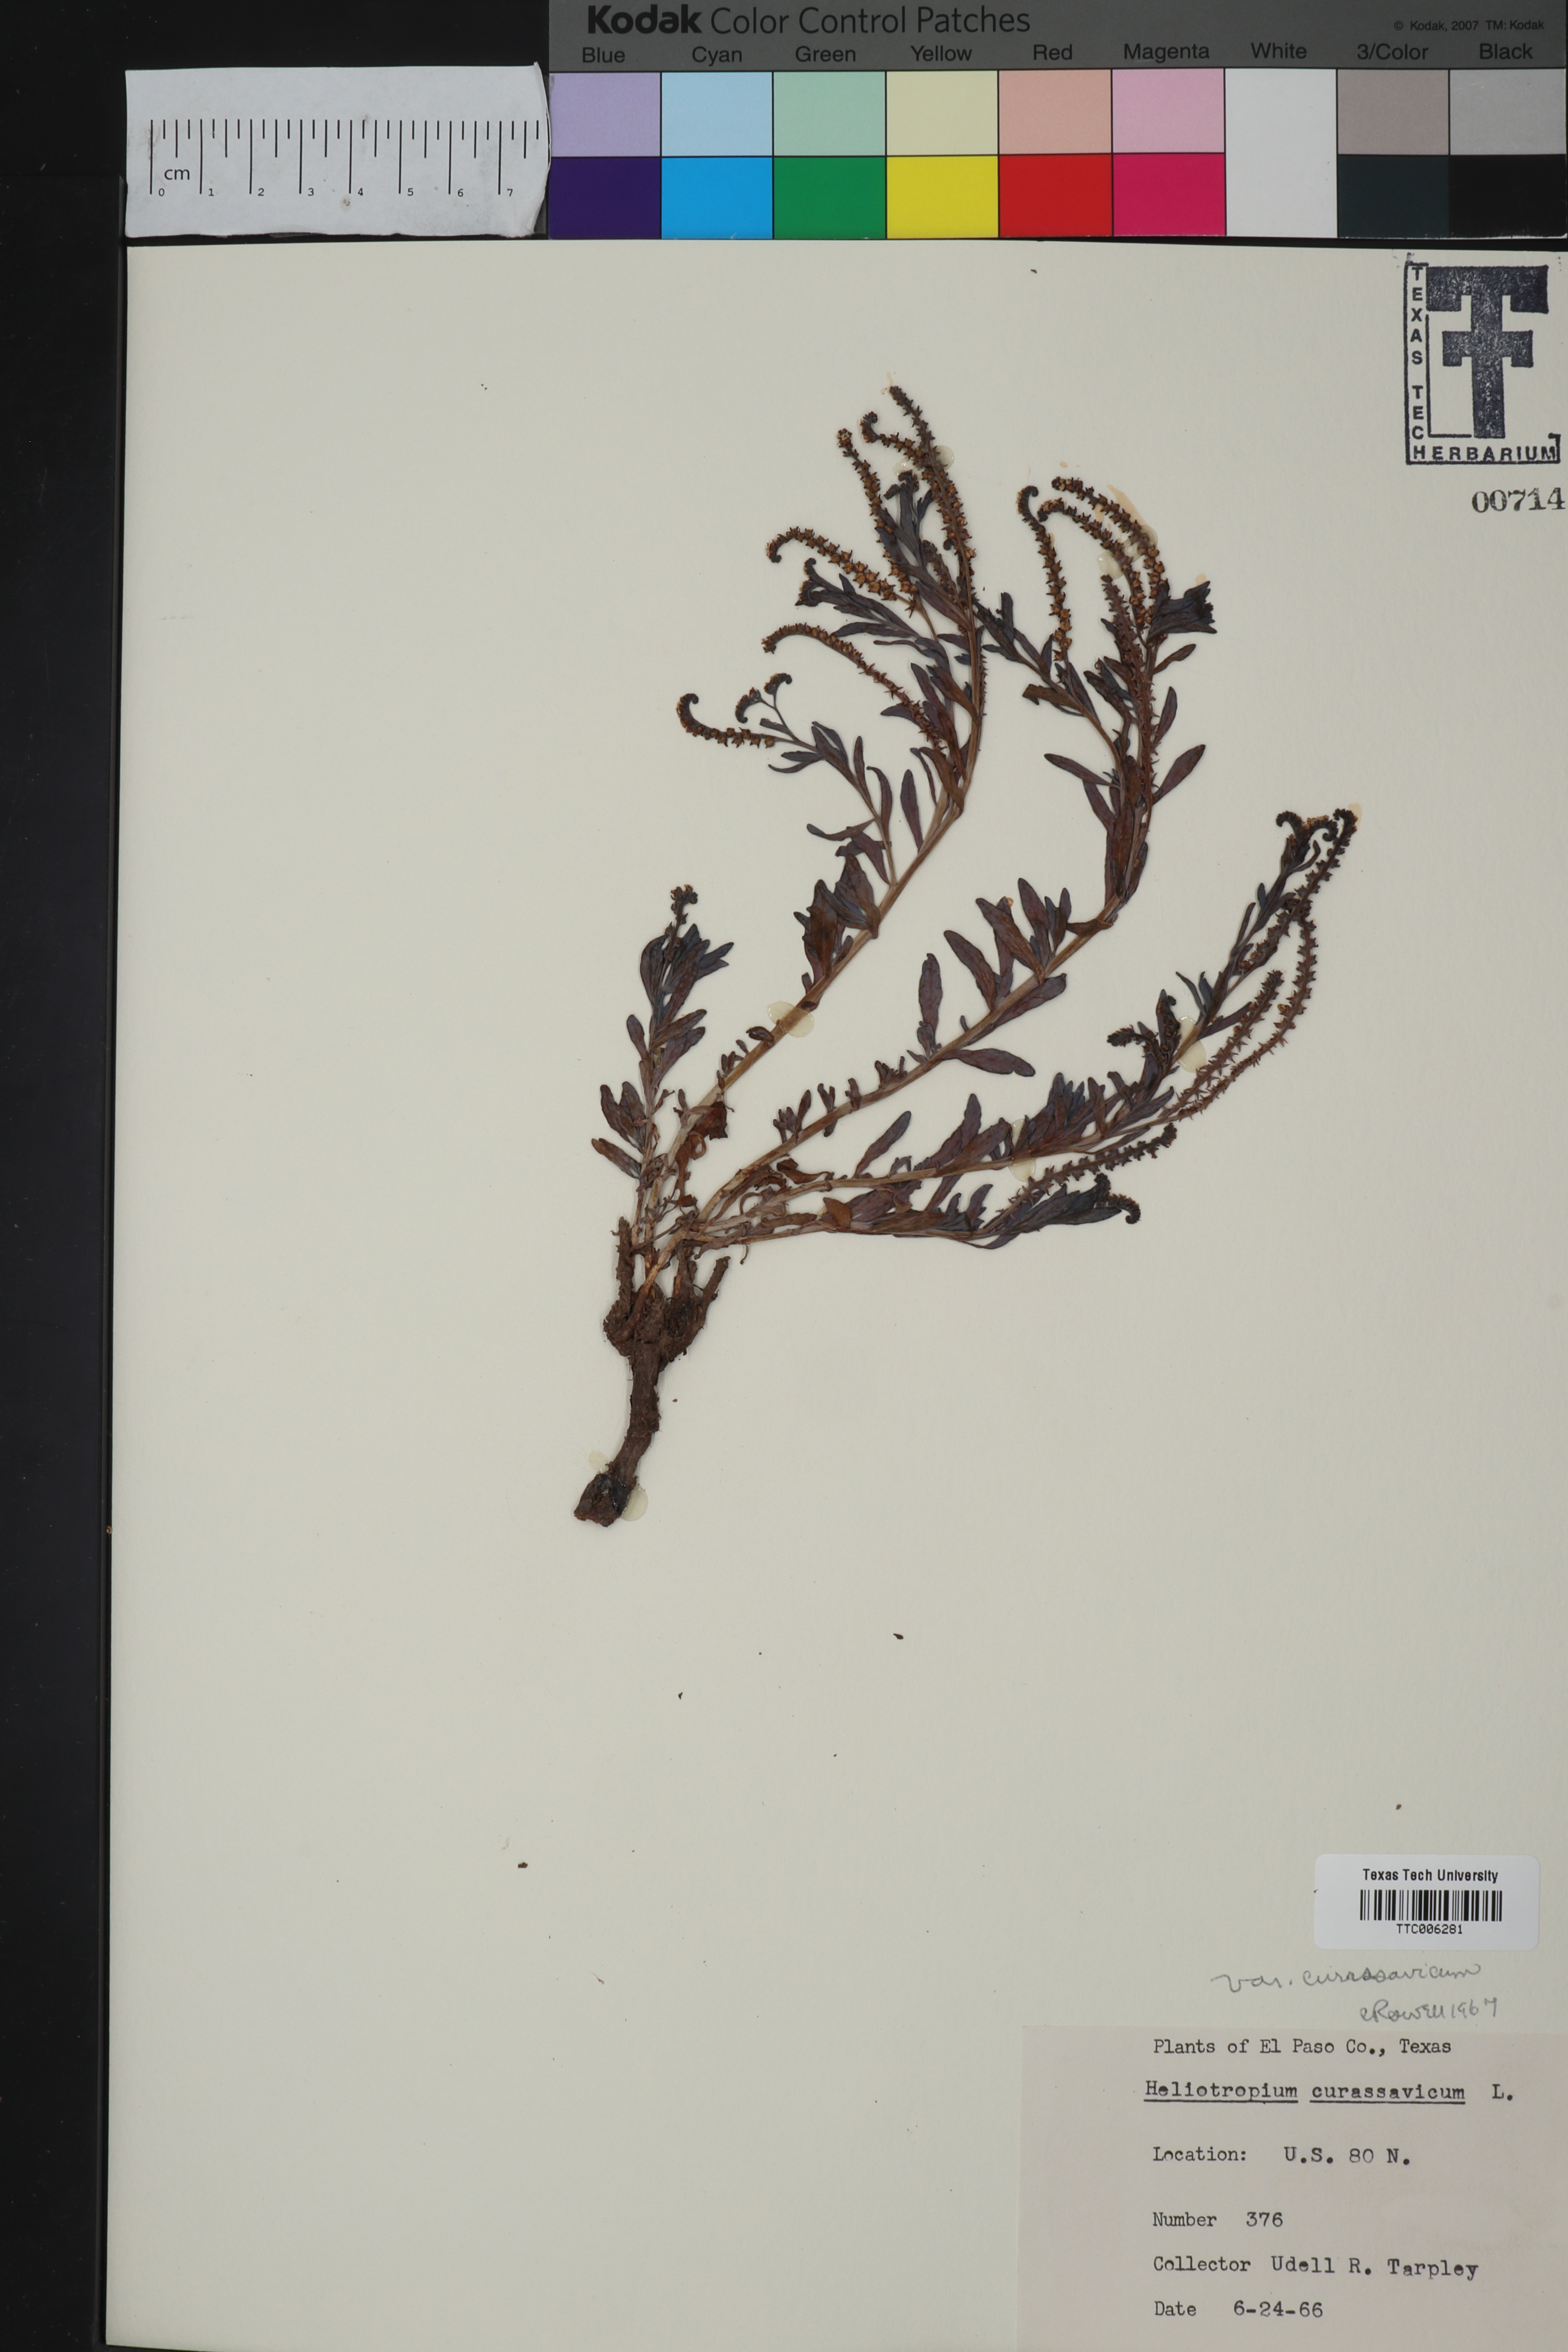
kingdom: Plantae
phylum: Tracheophyta
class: Magnoliopsida
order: Boraginales
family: Heliotropiaceae
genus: Heliotropium
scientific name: Heliotropium curassavicum
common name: Seaside heliotrope
